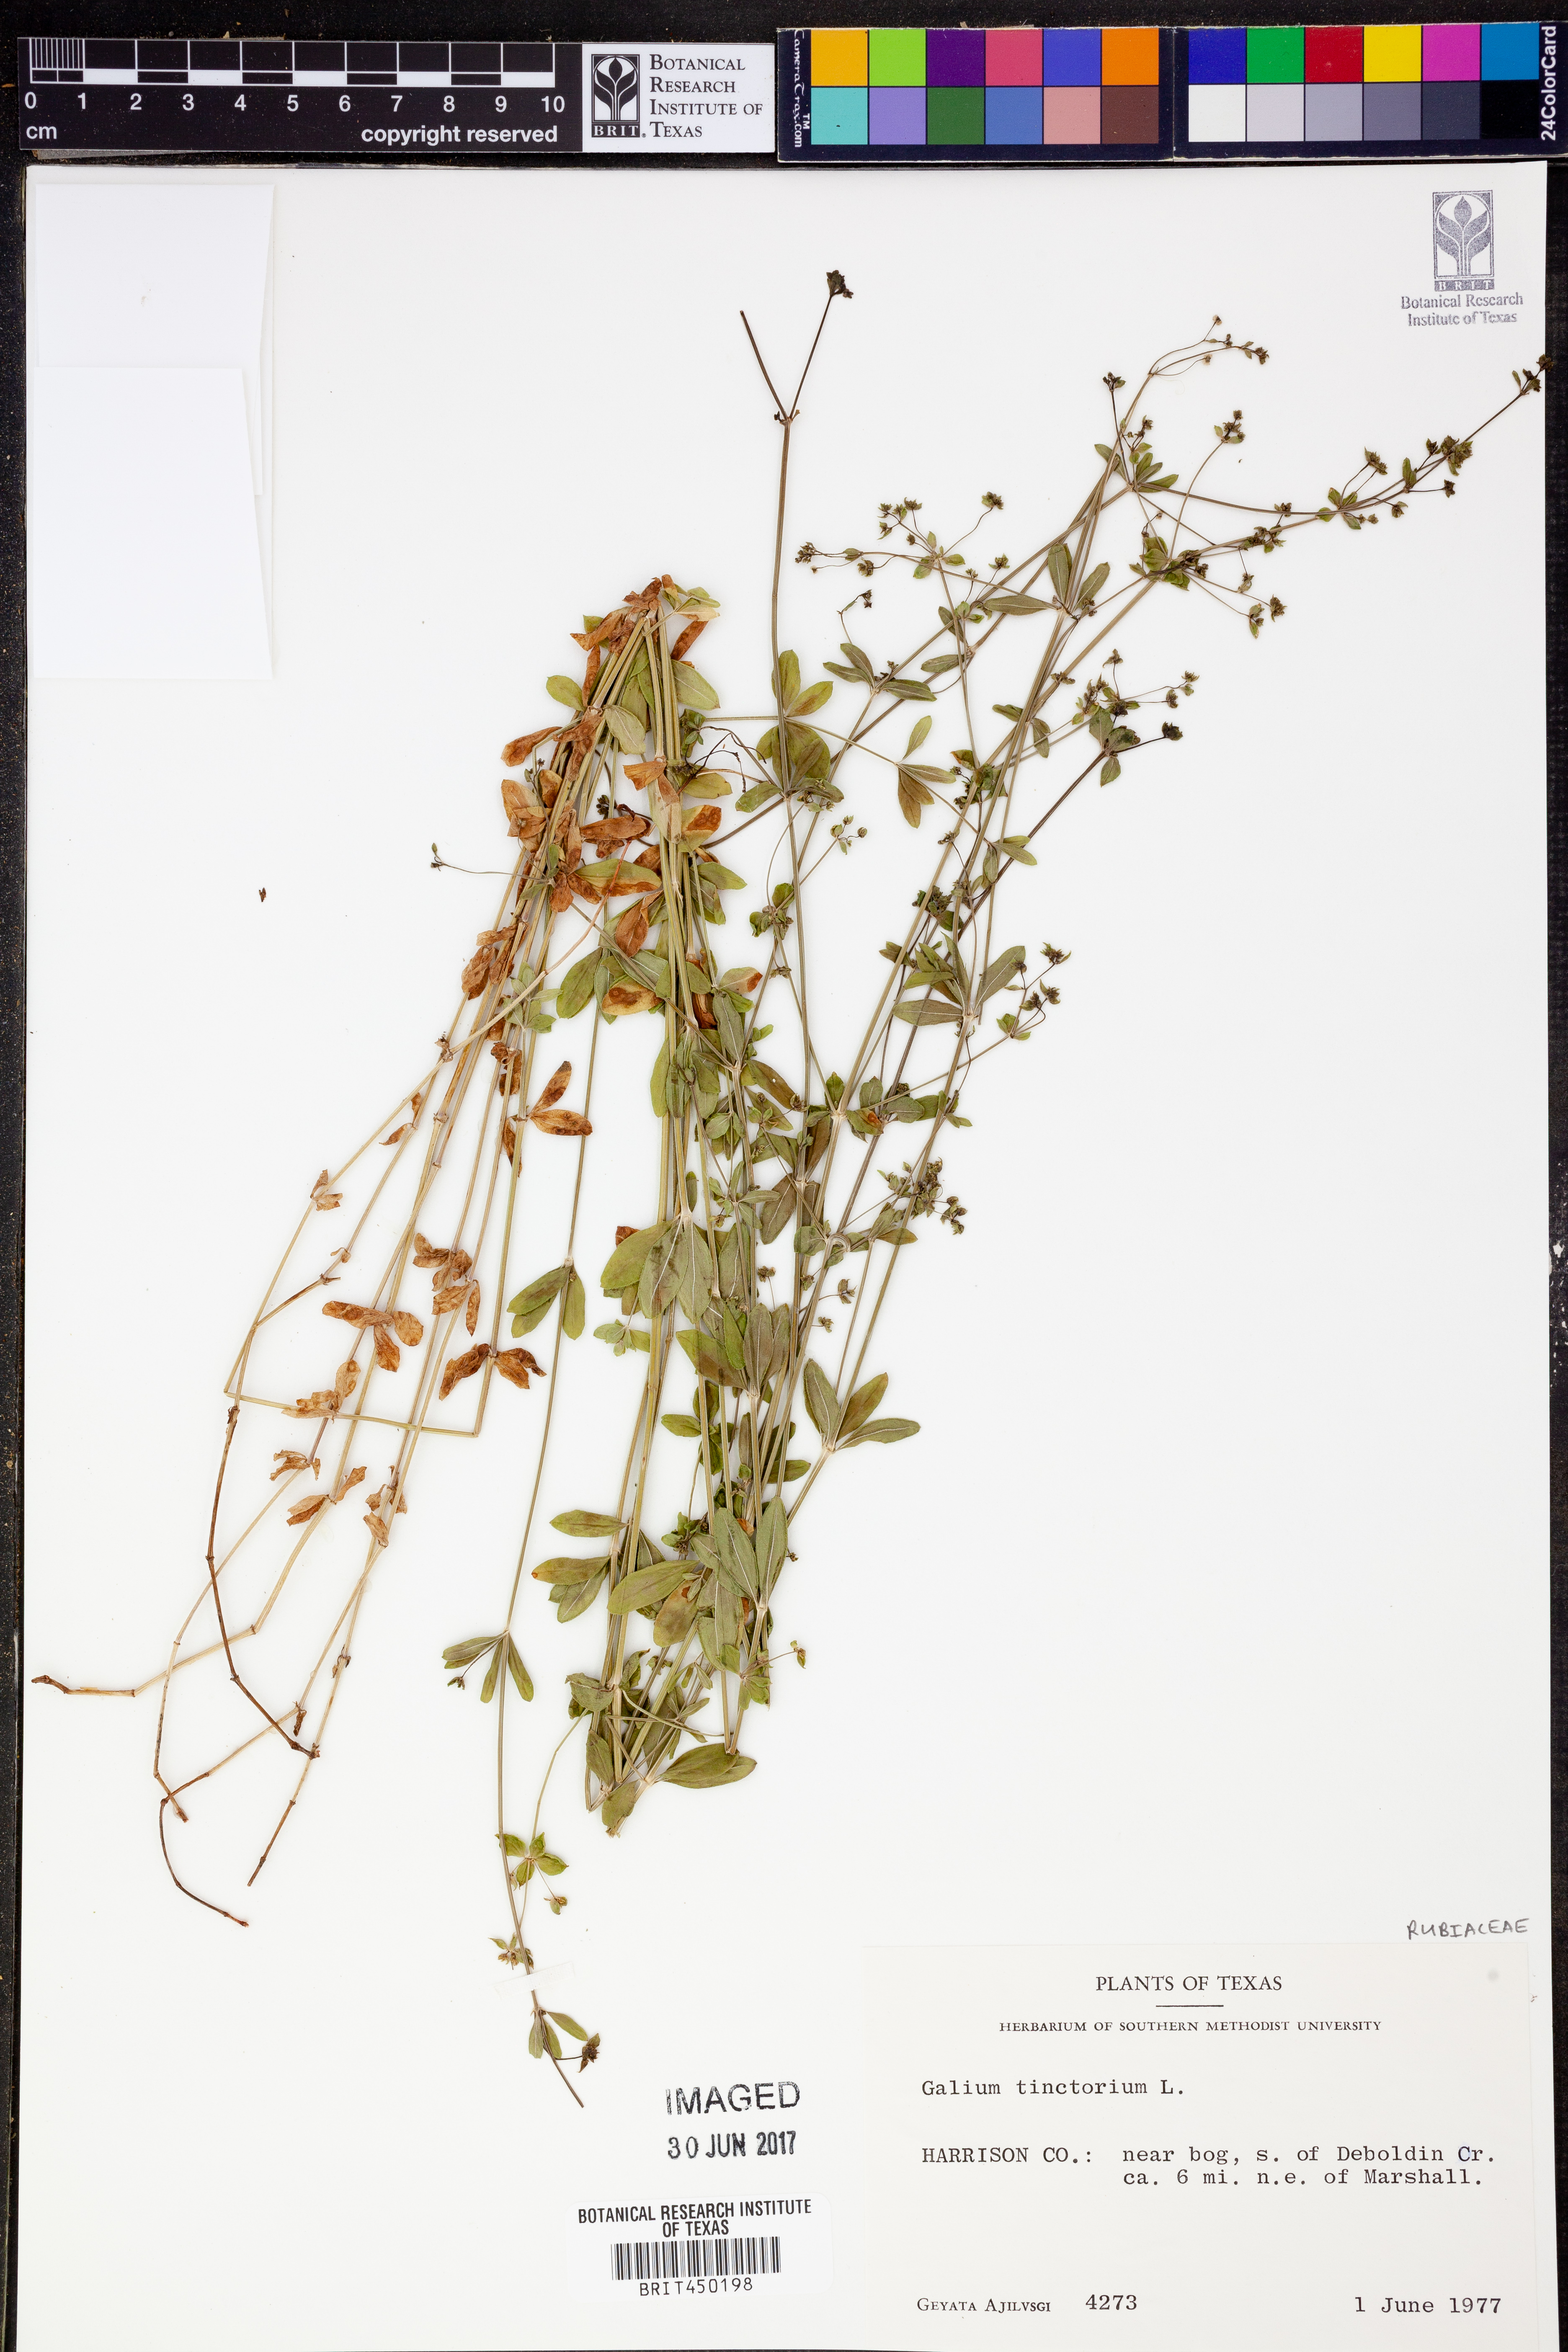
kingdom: Plantae
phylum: Tracheophyta
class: Magnoliopsida
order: Gentianales
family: Rubiaceae
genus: Asperula
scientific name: Asperula tinctoria
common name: Dyer's woodruff
